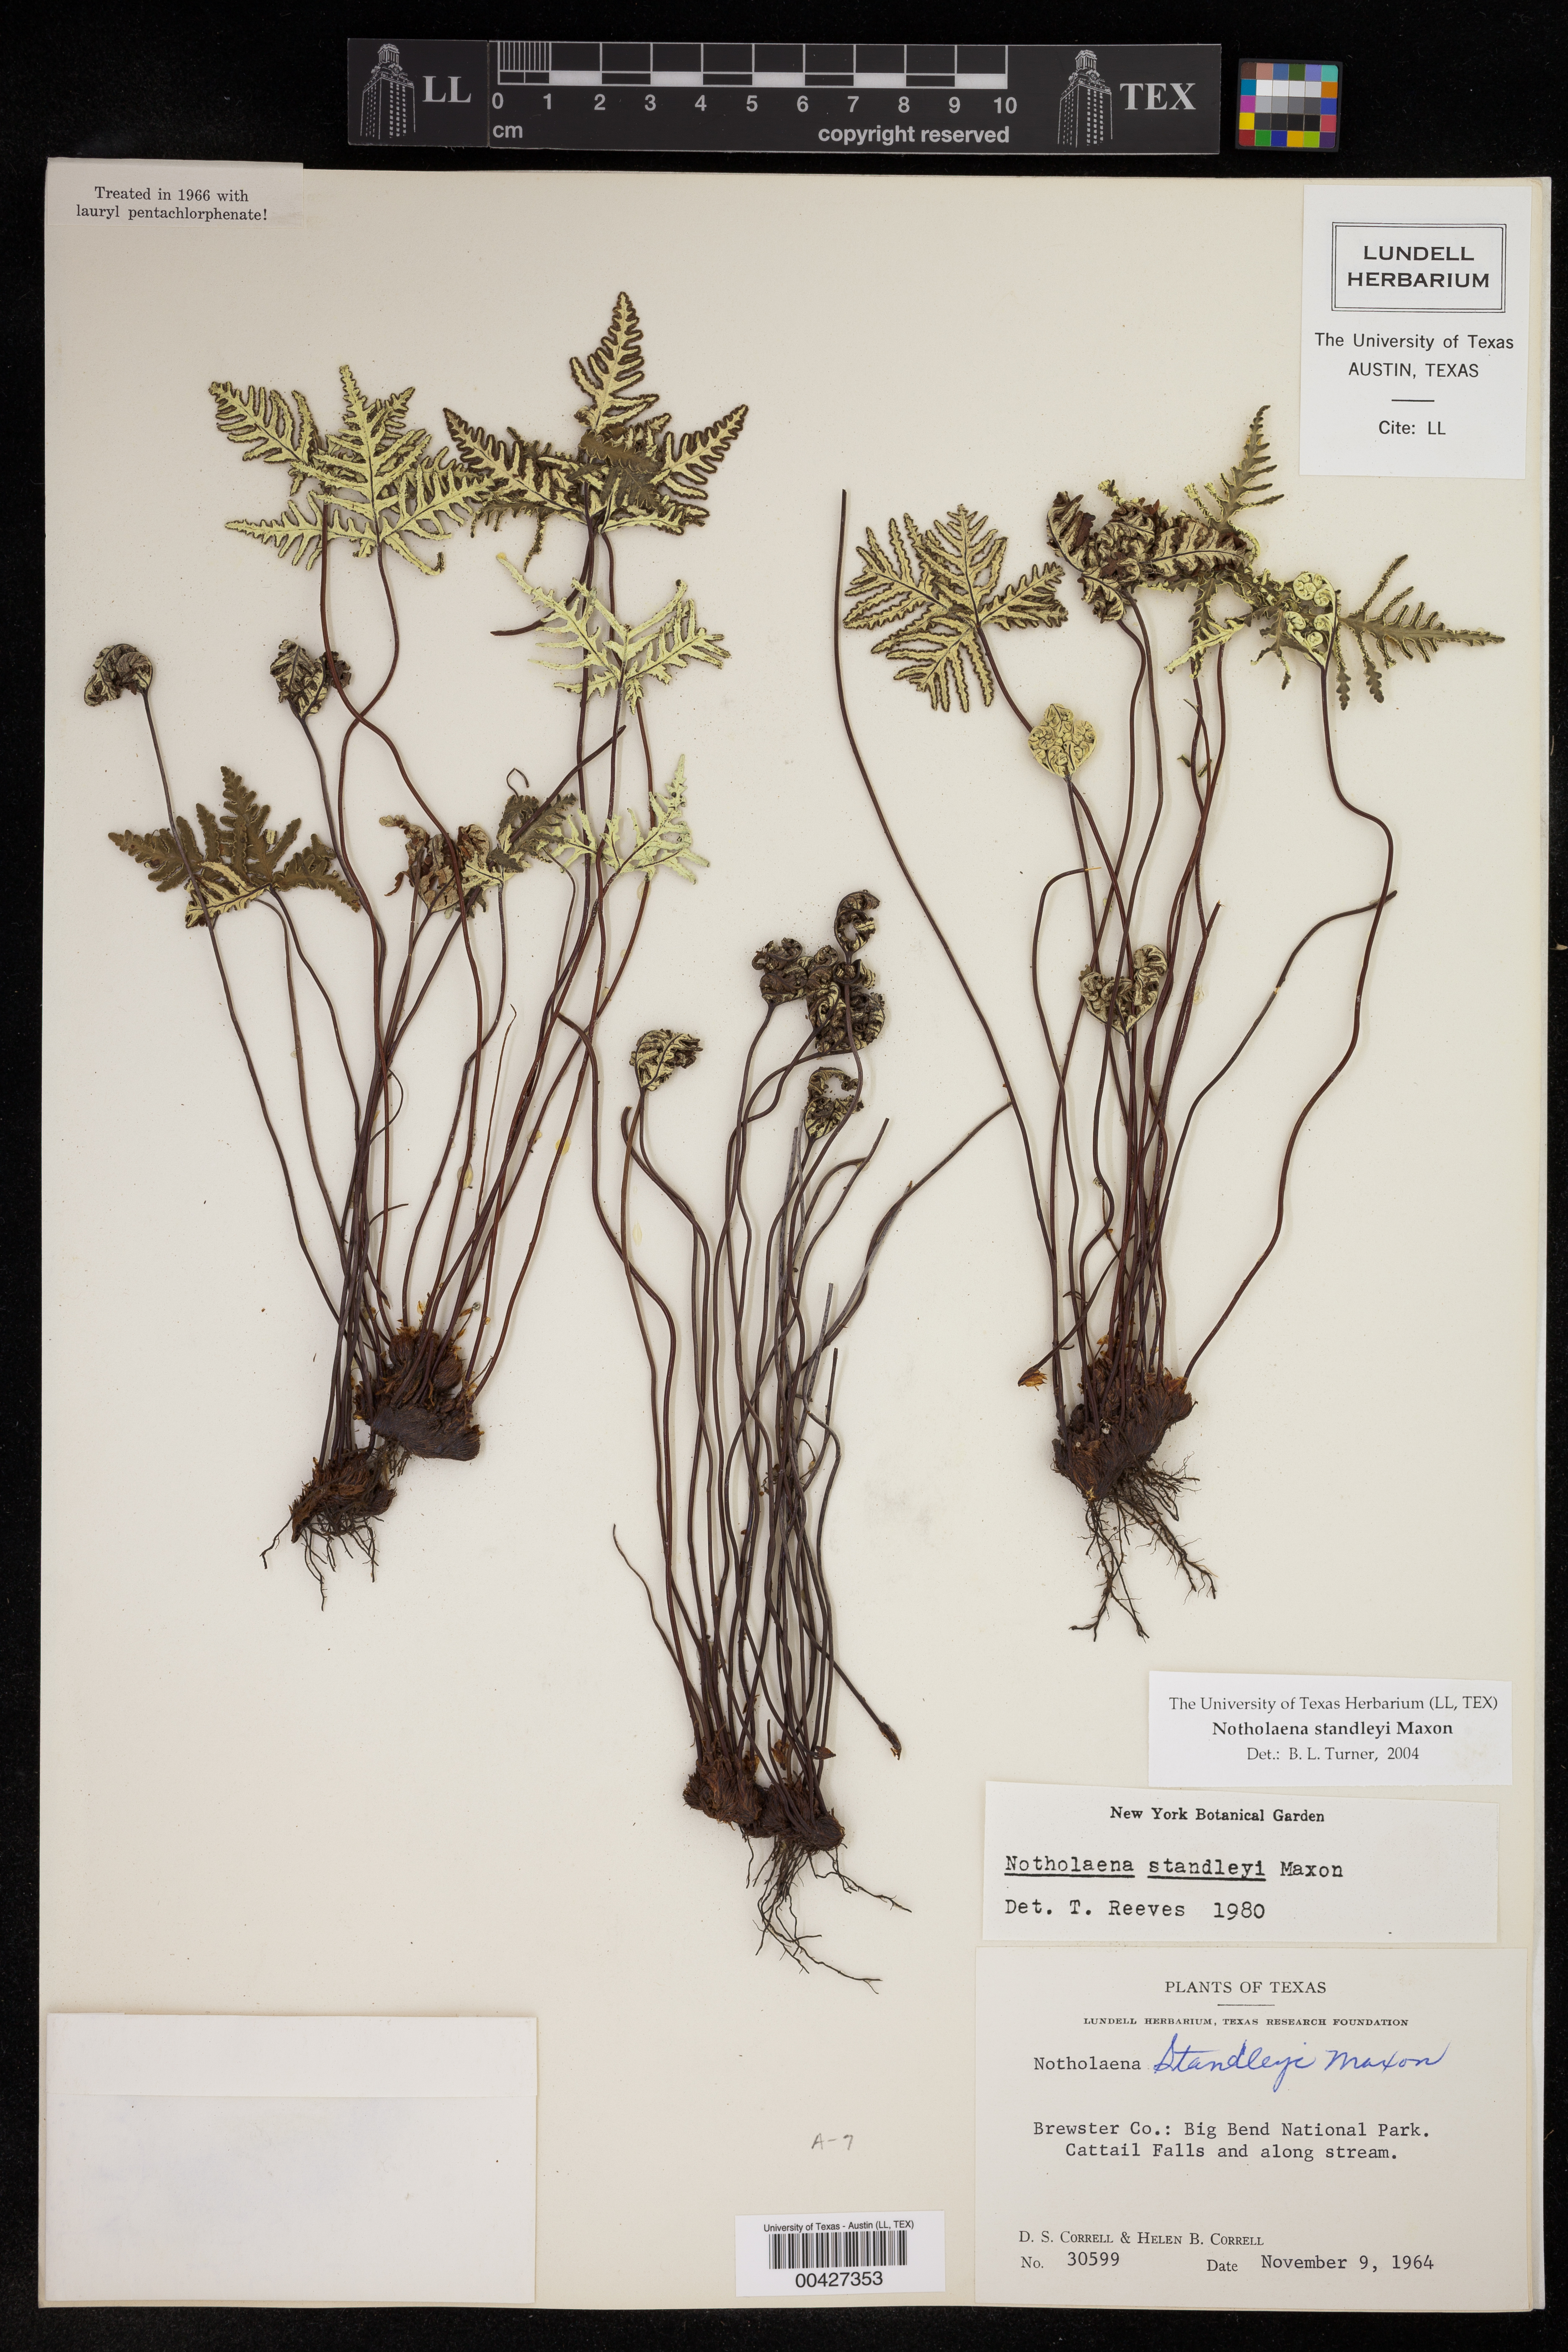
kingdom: Plantae
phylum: Tracheophyta
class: Polypodiopsida
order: Polypodiales
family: Pteridaceae
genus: Notholaena
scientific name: Notholaena standleyi
